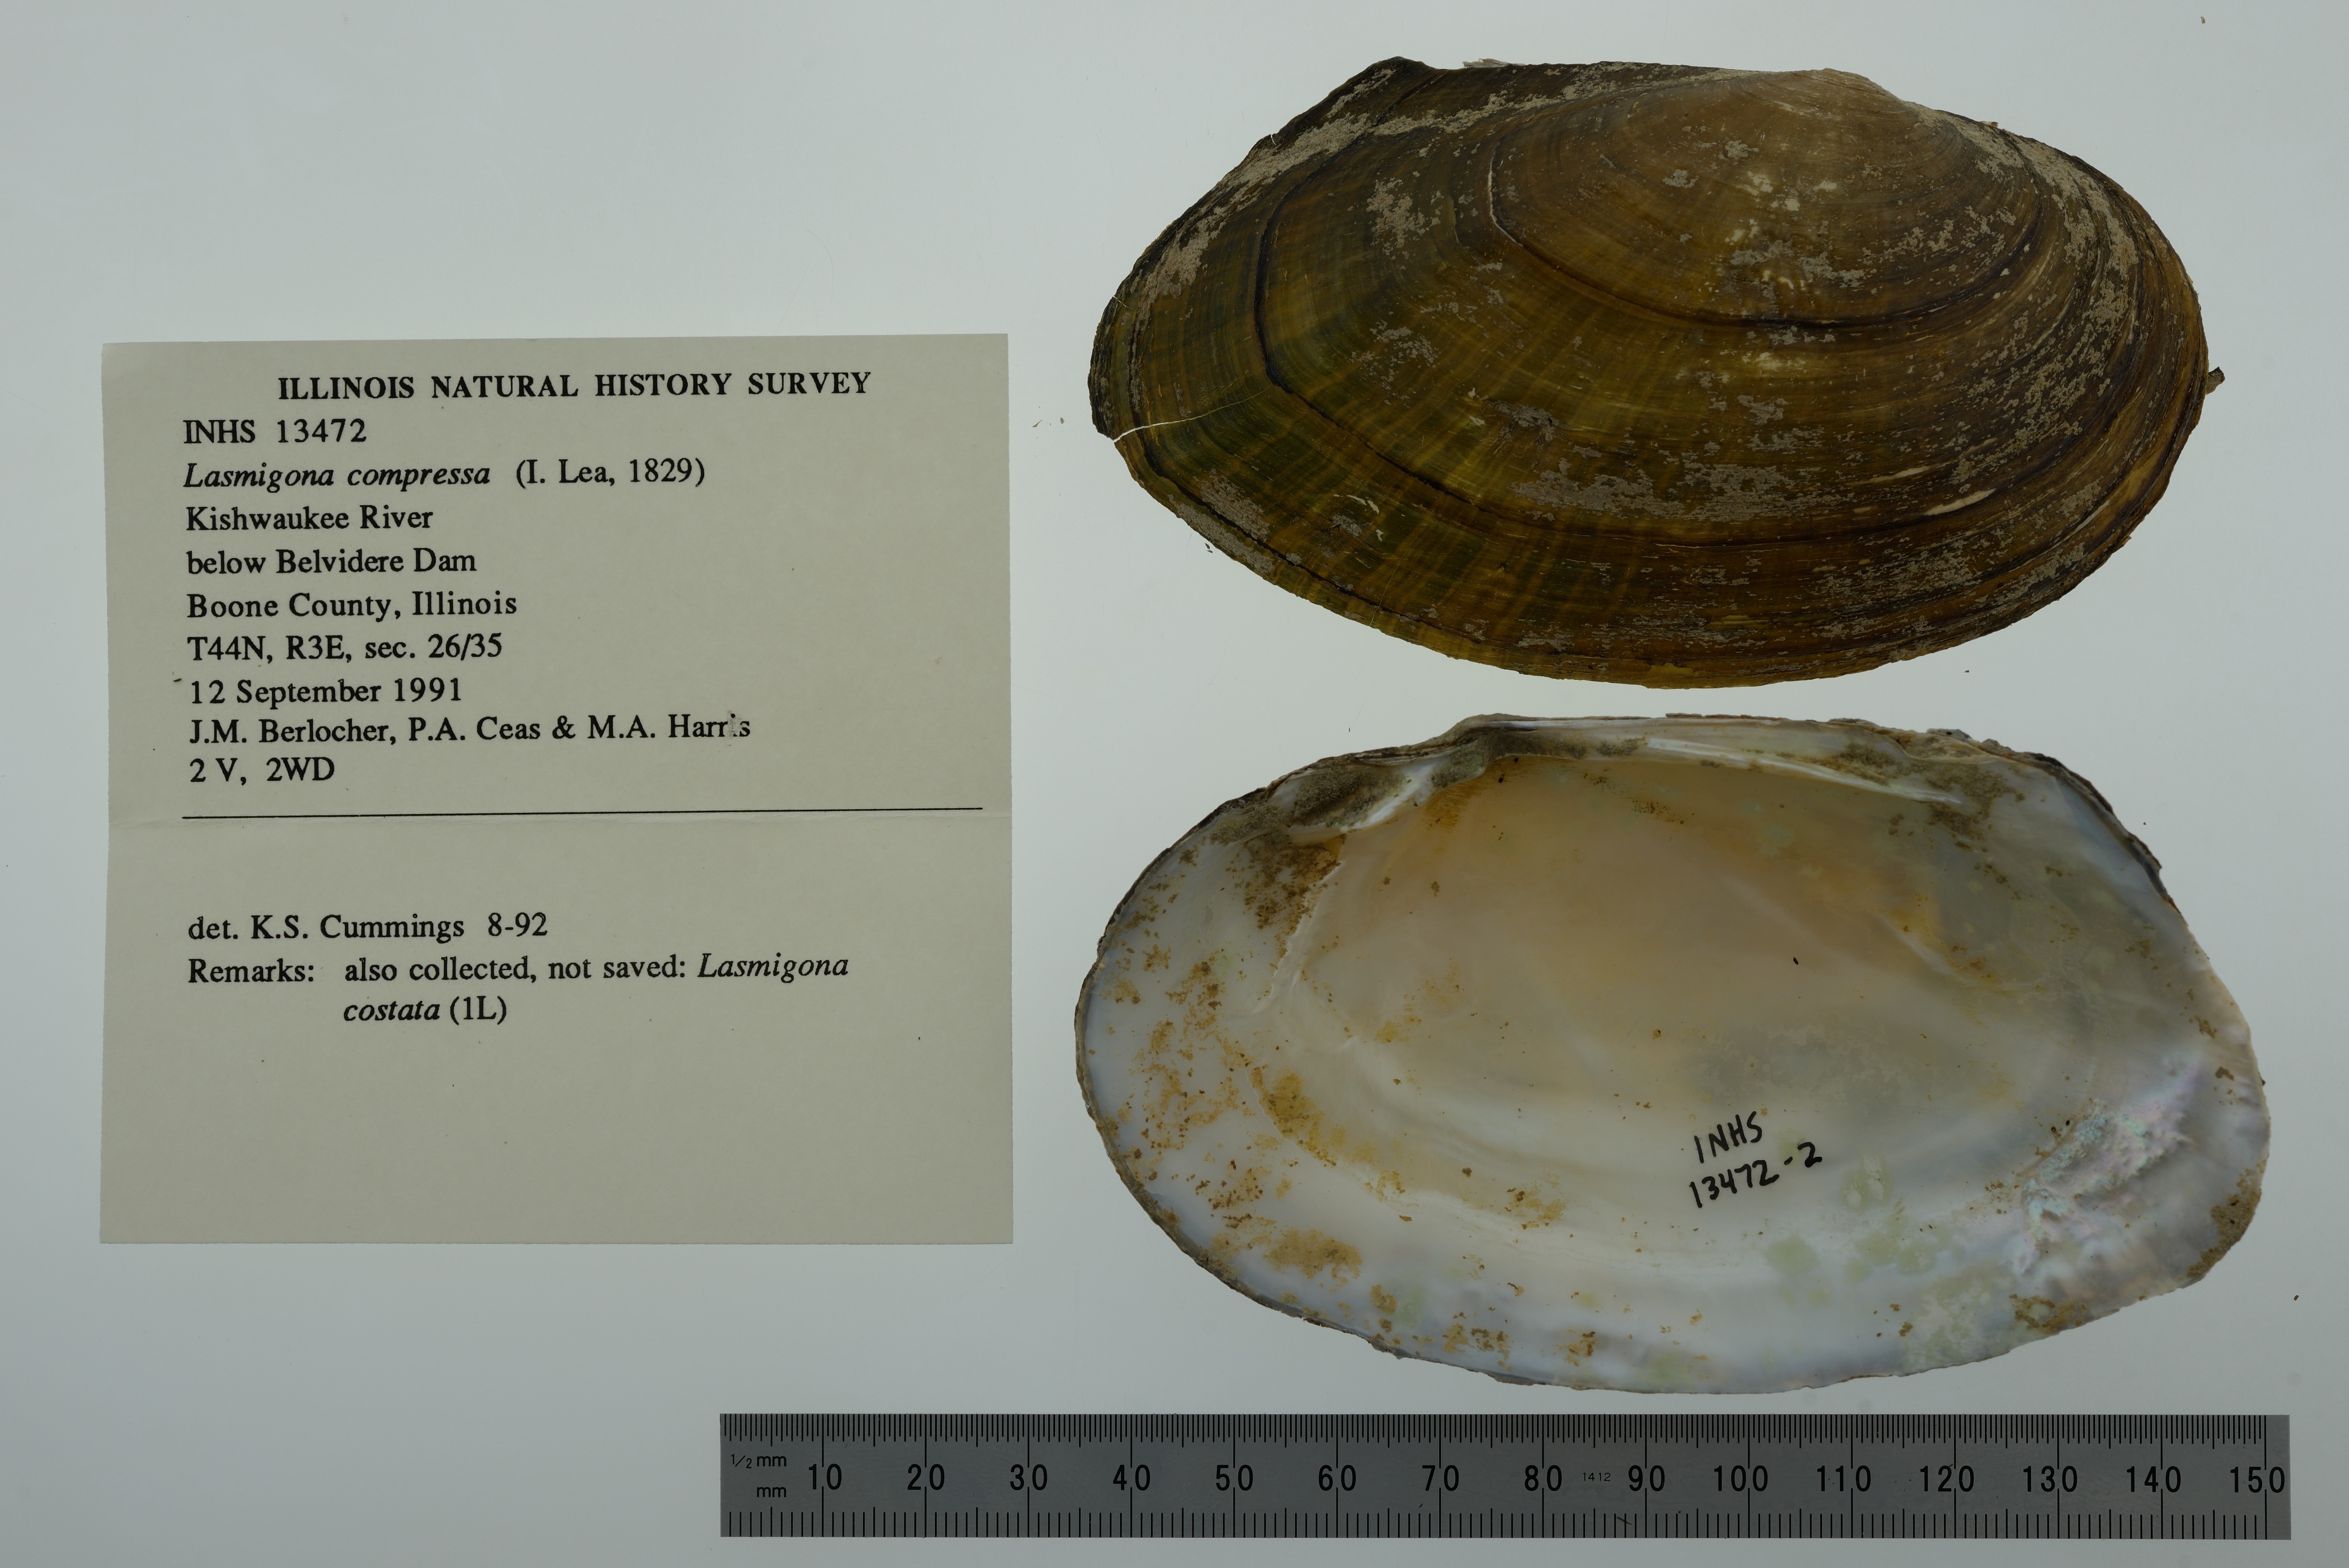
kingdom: Animalia
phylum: Mollusca
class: Bivalvia
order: Unionida
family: Unionidae
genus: Lasmigona
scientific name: Lasmigona compressa
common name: Creek heelsplitter
